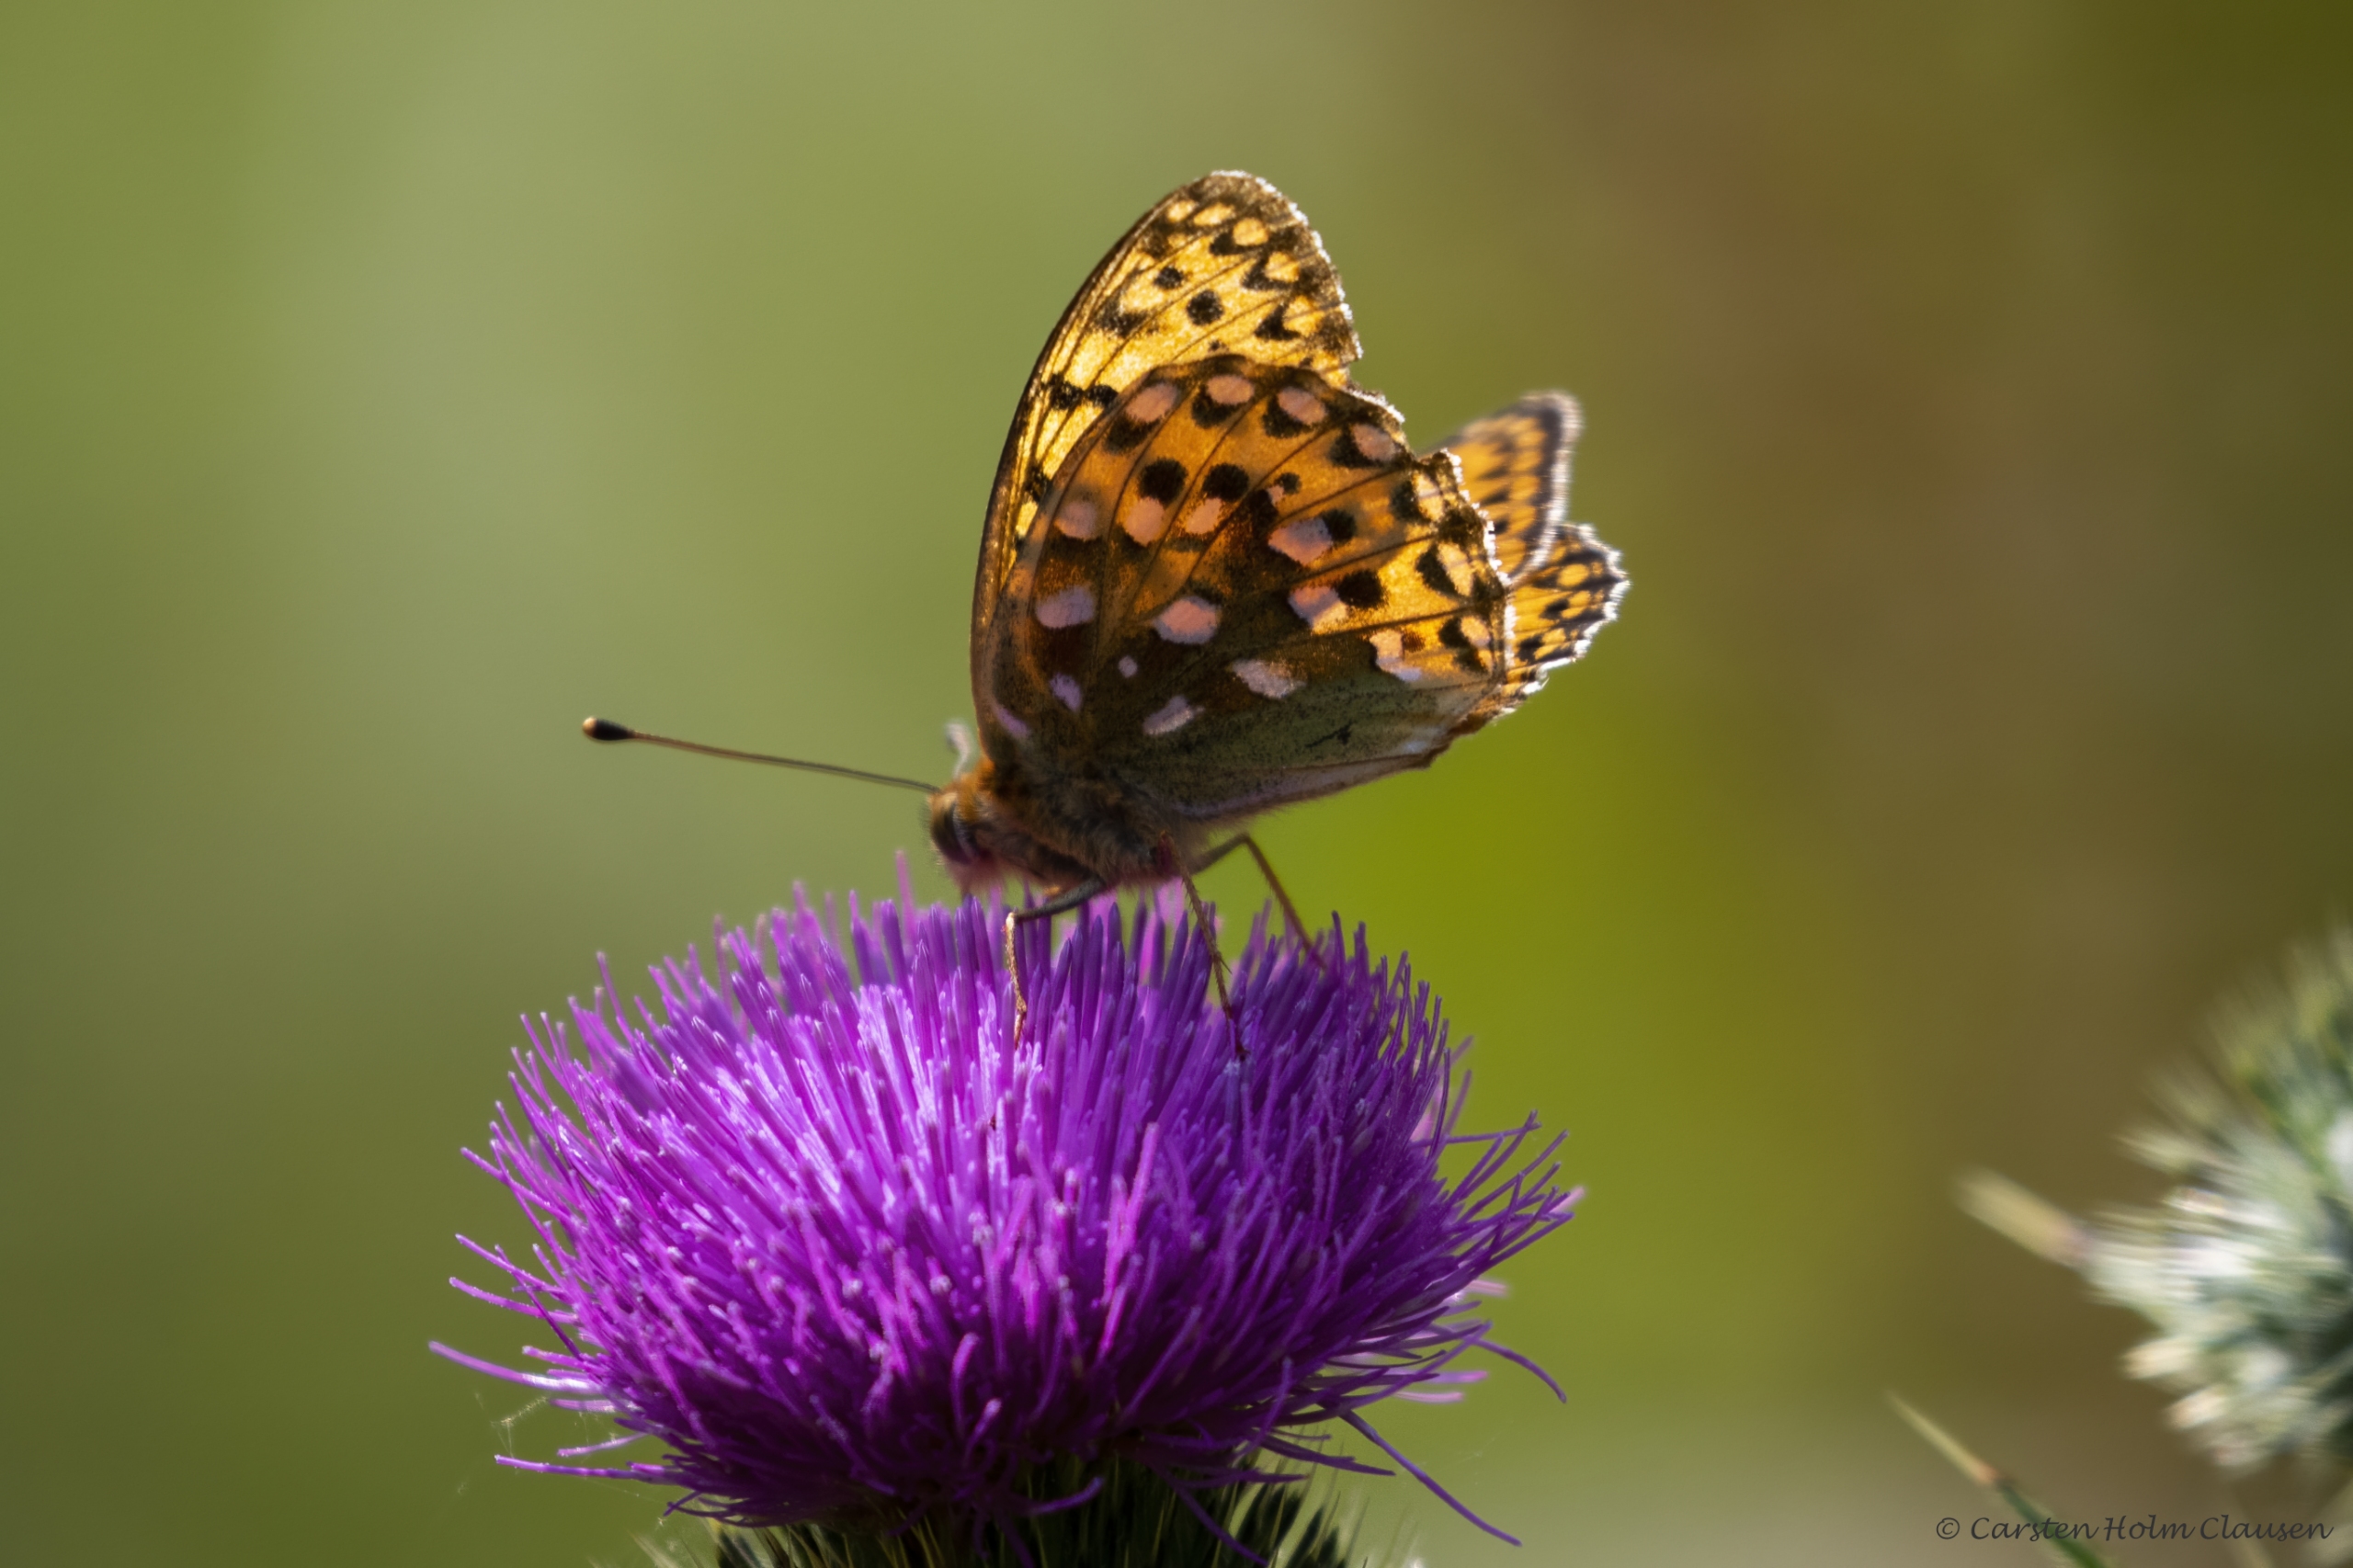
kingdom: Animalia
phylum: Arthropoda
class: Insecta
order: Lepidoptera
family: Nymphalidae
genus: Speyeria
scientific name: Speyeria aglaja
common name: Markperlemorsommerfugl
